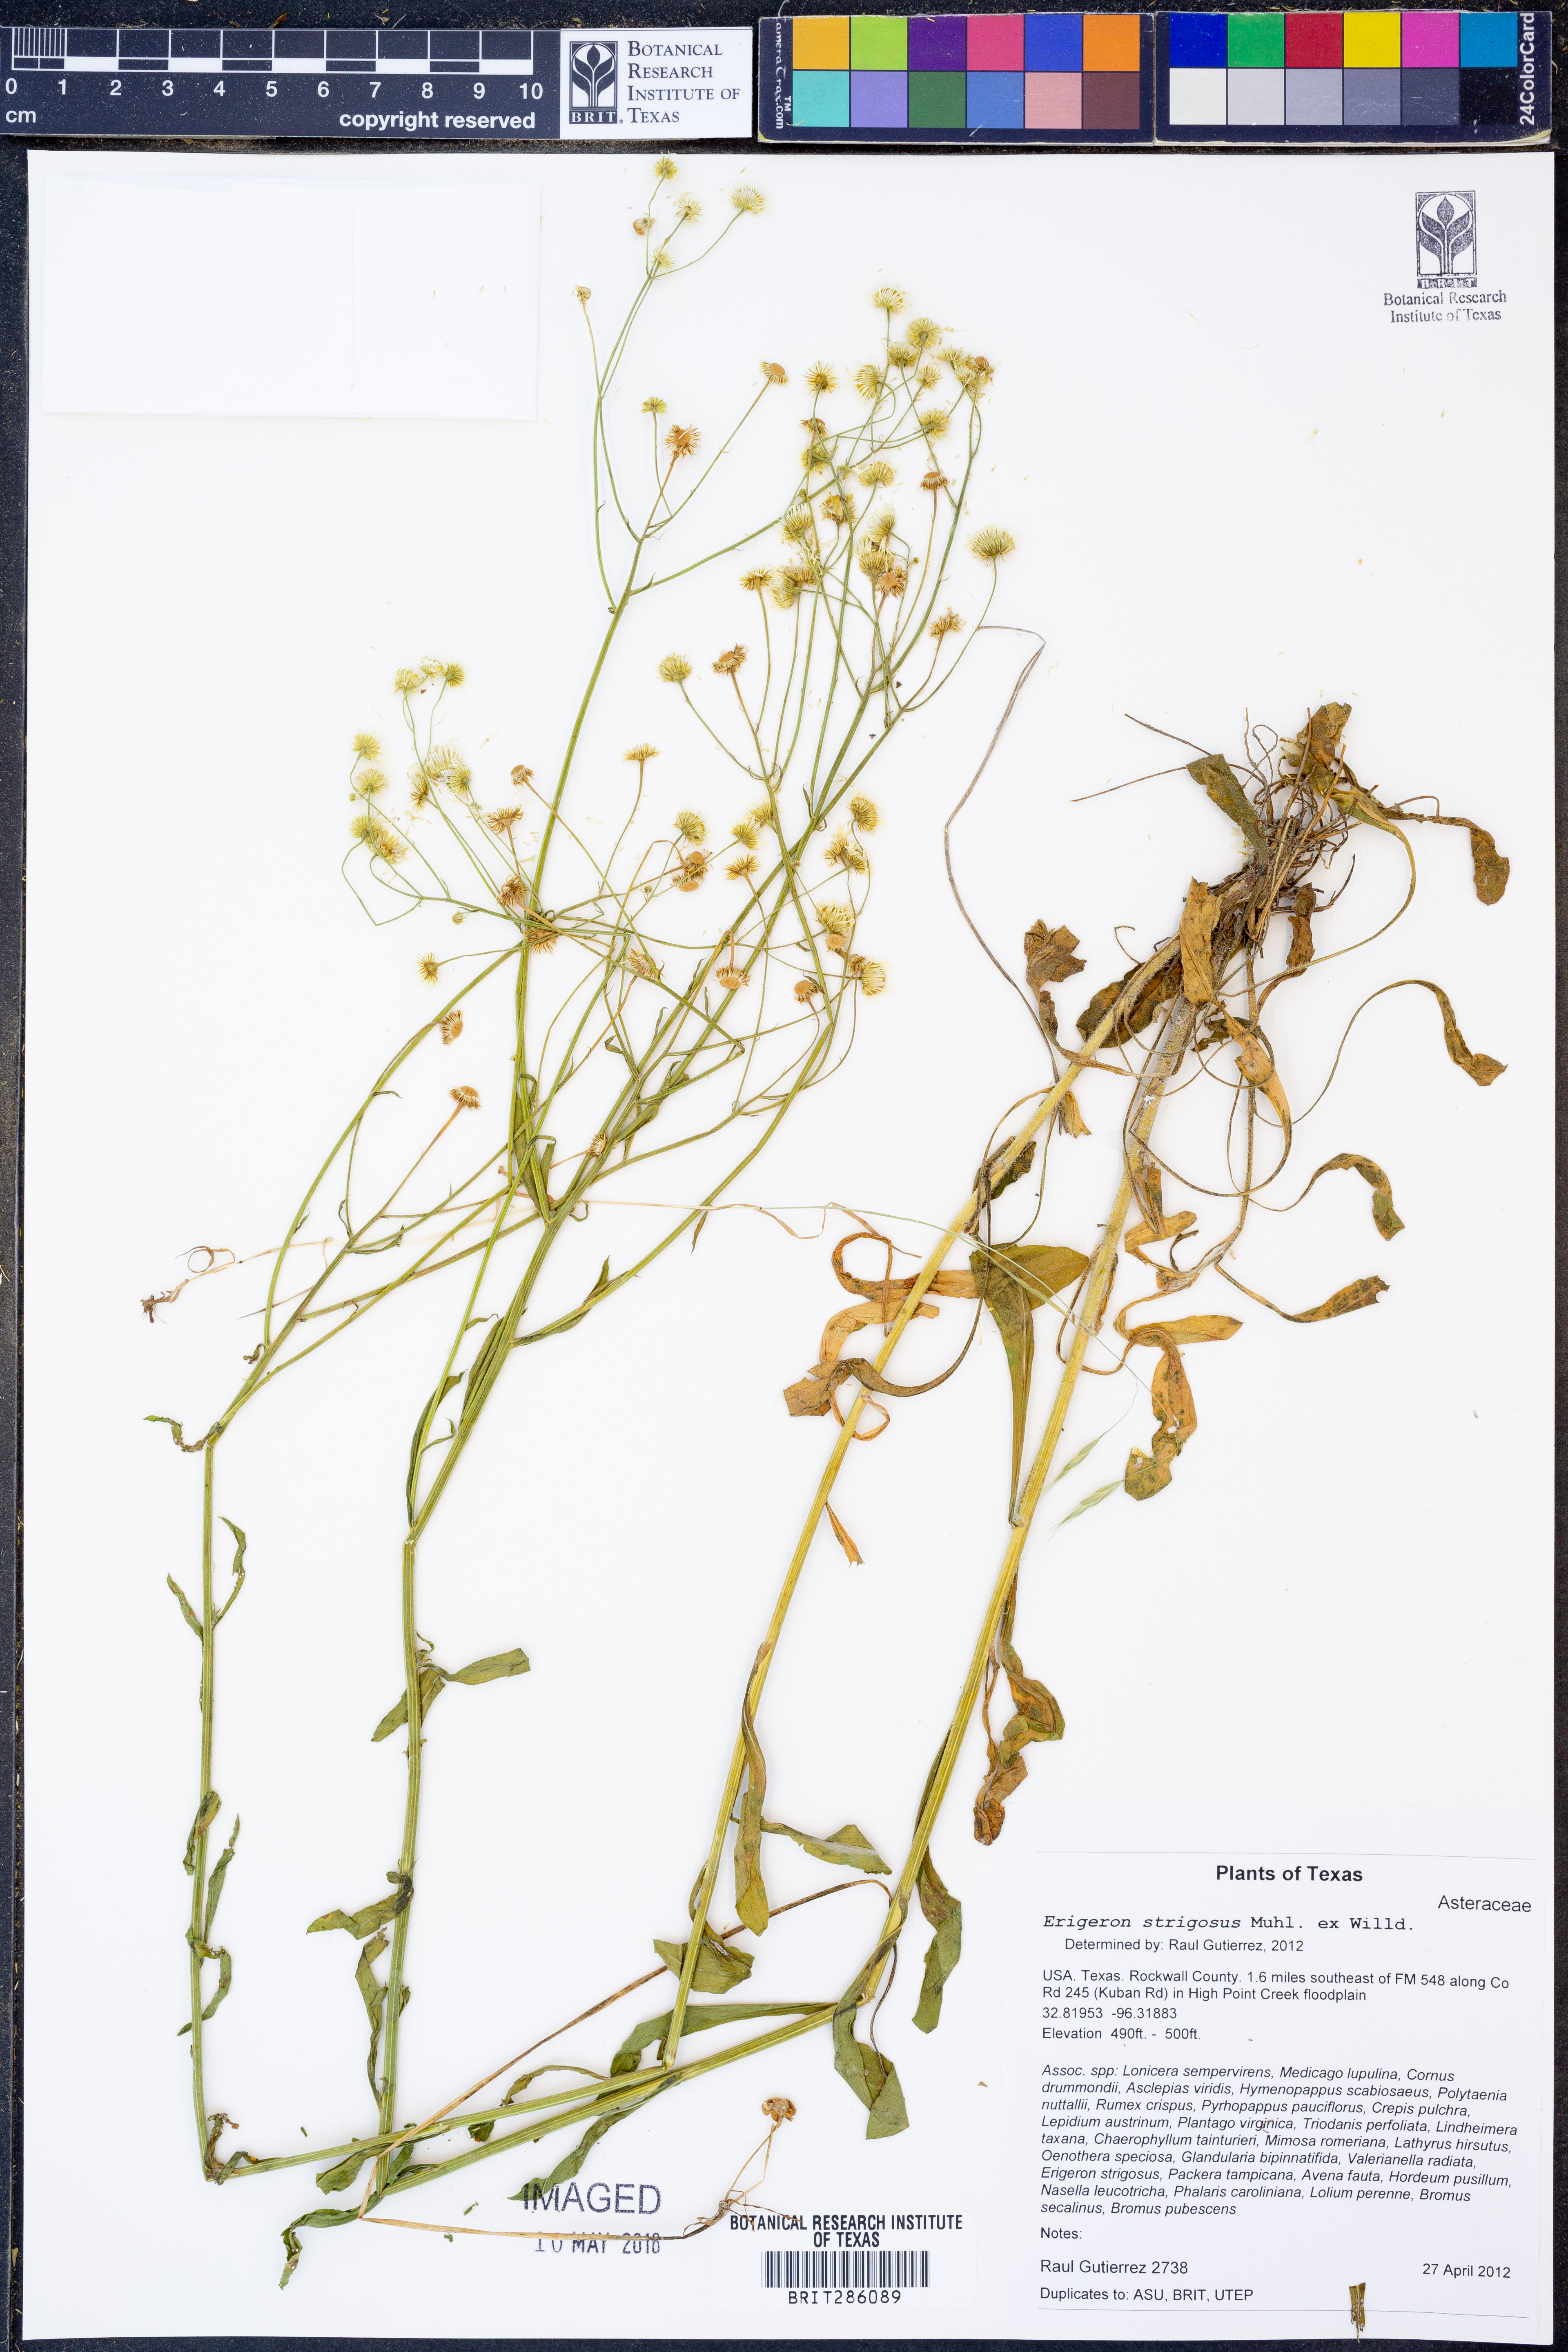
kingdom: Plantae
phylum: Tracheophyta
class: Magnoliopsida
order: Asterales
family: Asteraceae
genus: Erigeron
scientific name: Erigeron strigosus
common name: Common eastern fleabane
